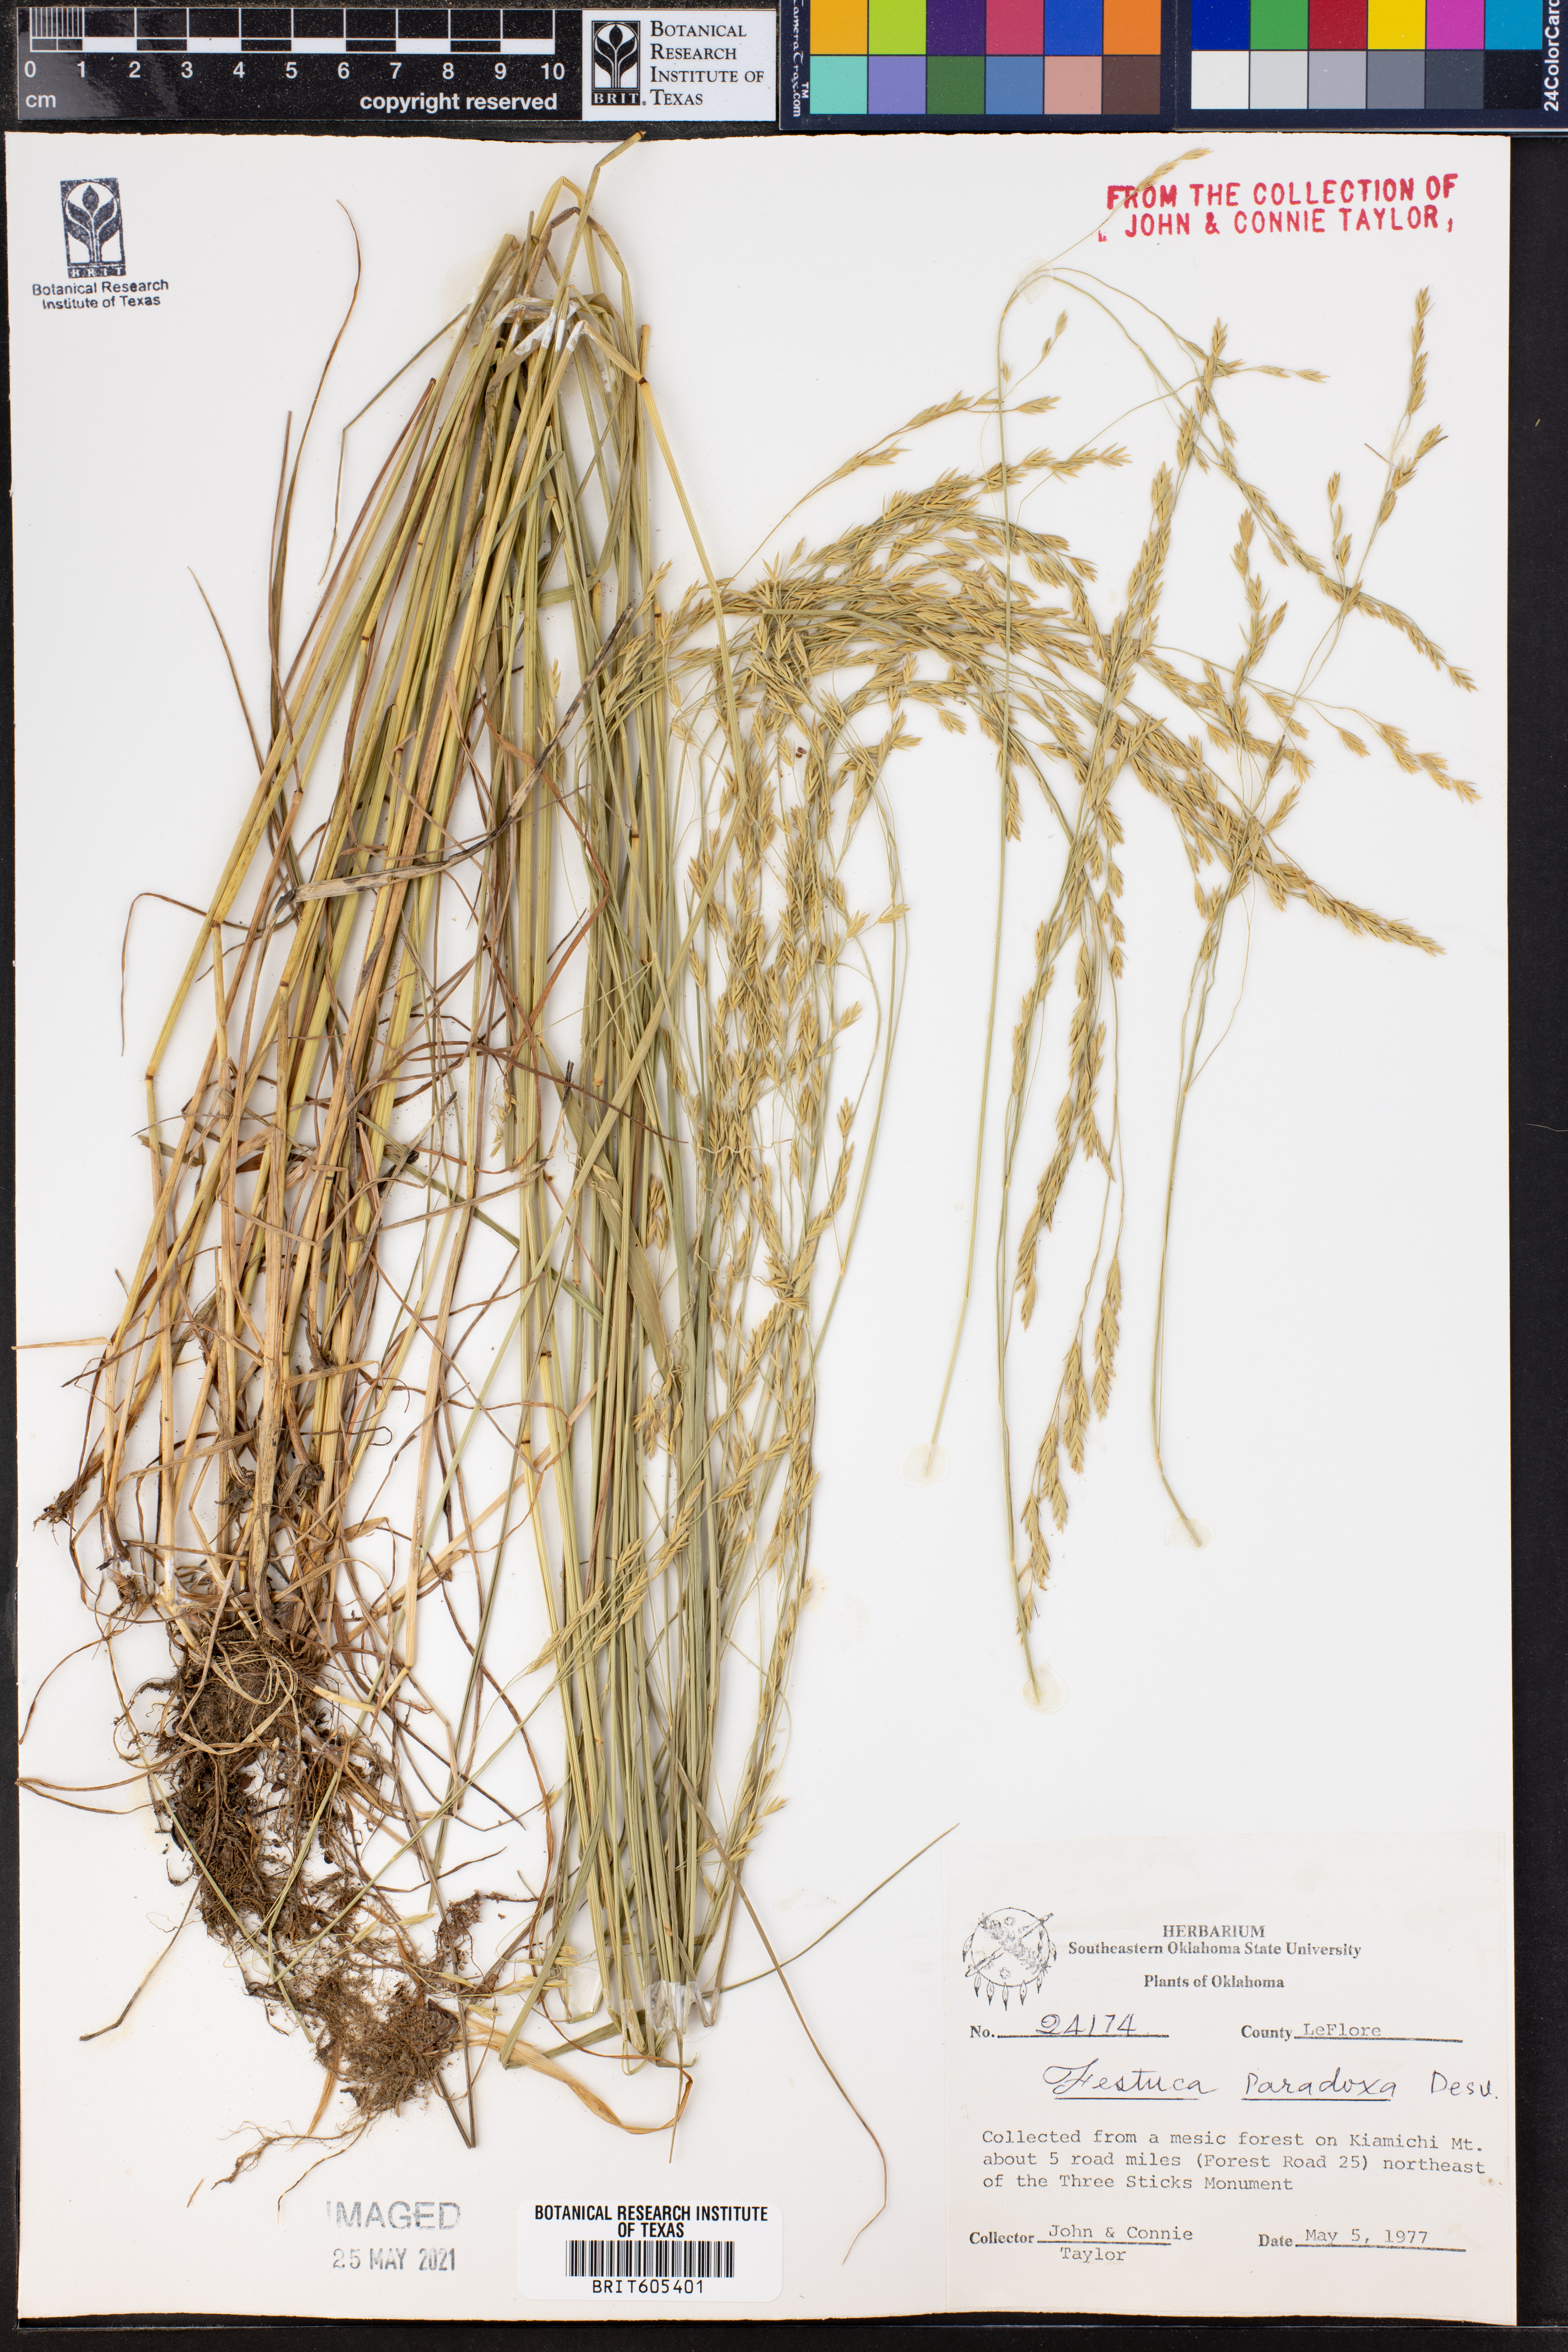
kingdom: Plantae
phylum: Tracheophyta
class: Liliopsida
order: Poales
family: Poaceae
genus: Festuca
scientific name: Festuca paradoxa
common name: Cluster fescue
